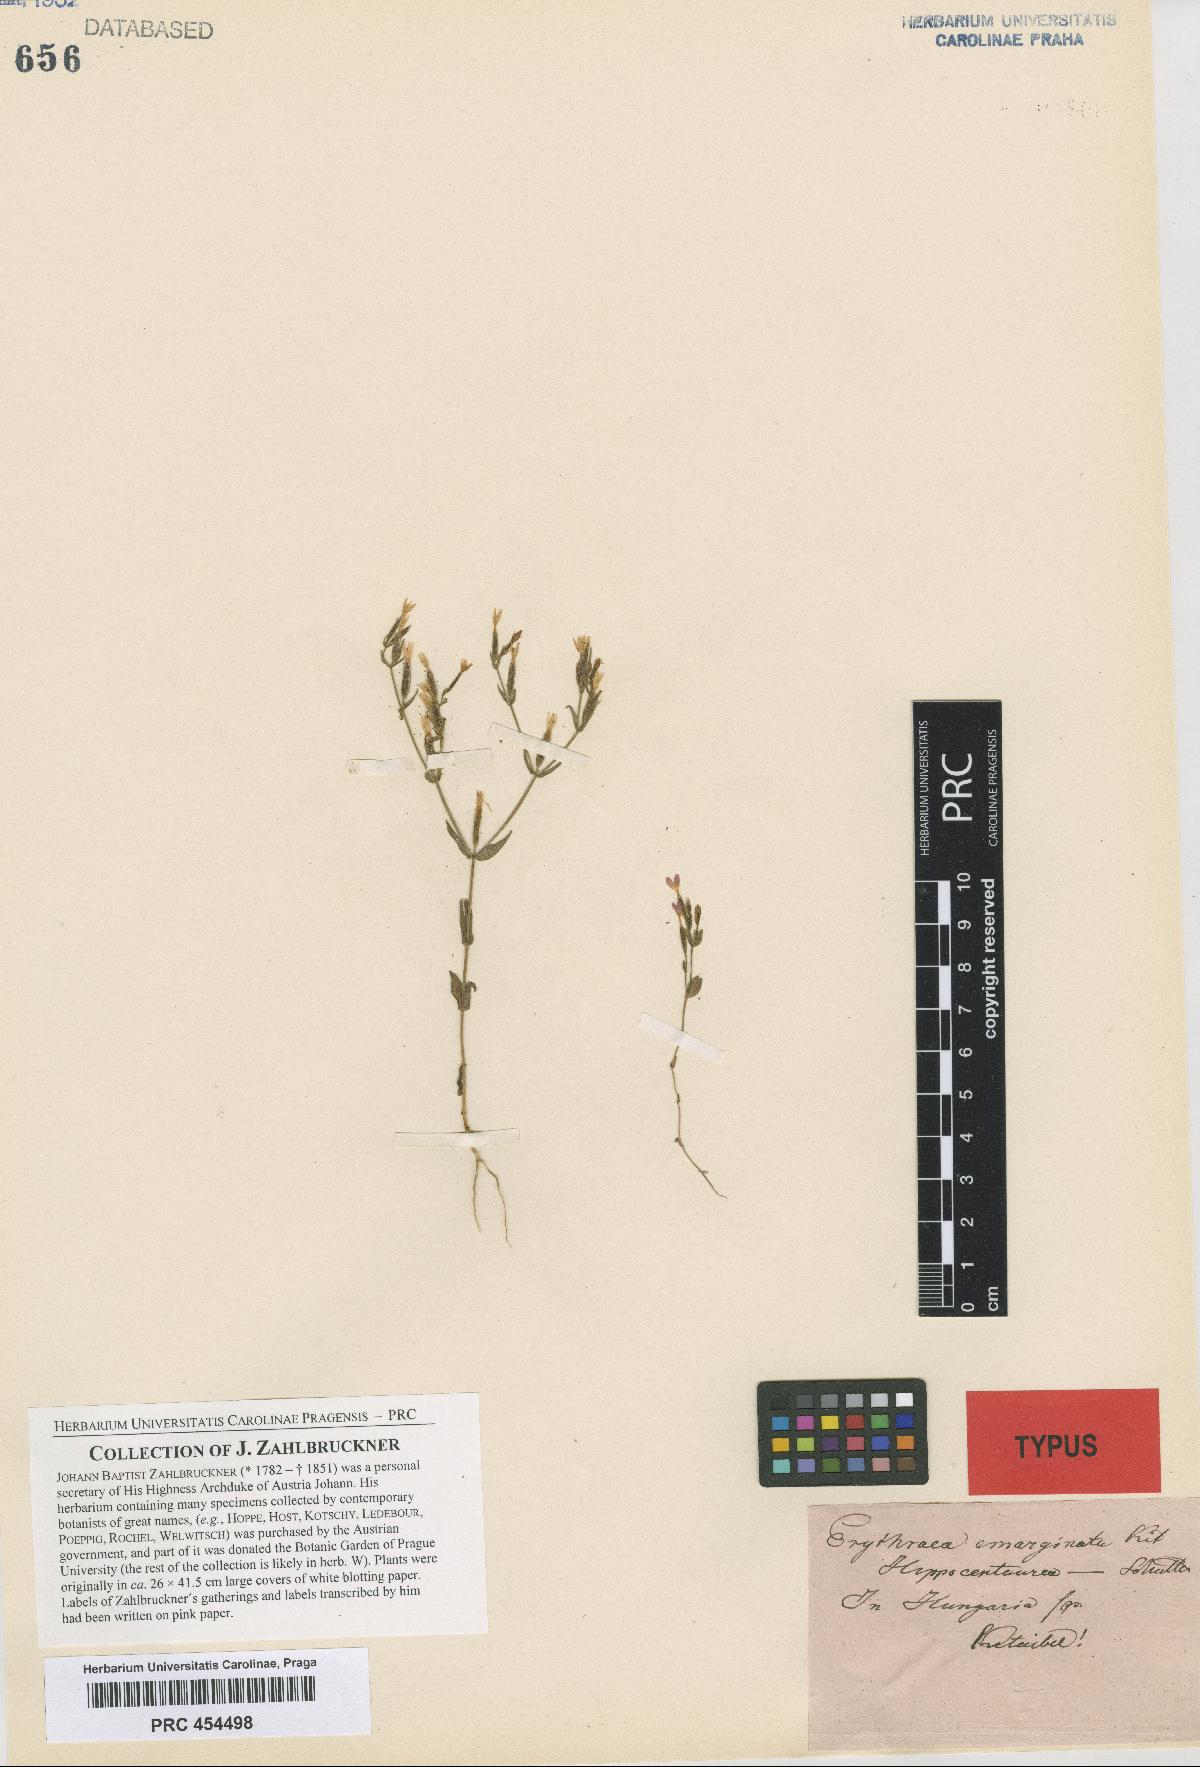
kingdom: Plantae
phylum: Tracheophyta
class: Magnoliopsida
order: Gentianales
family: Gentianaceae
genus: Centaurium
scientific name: Centaurium pulchellum
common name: Lesser centaury
